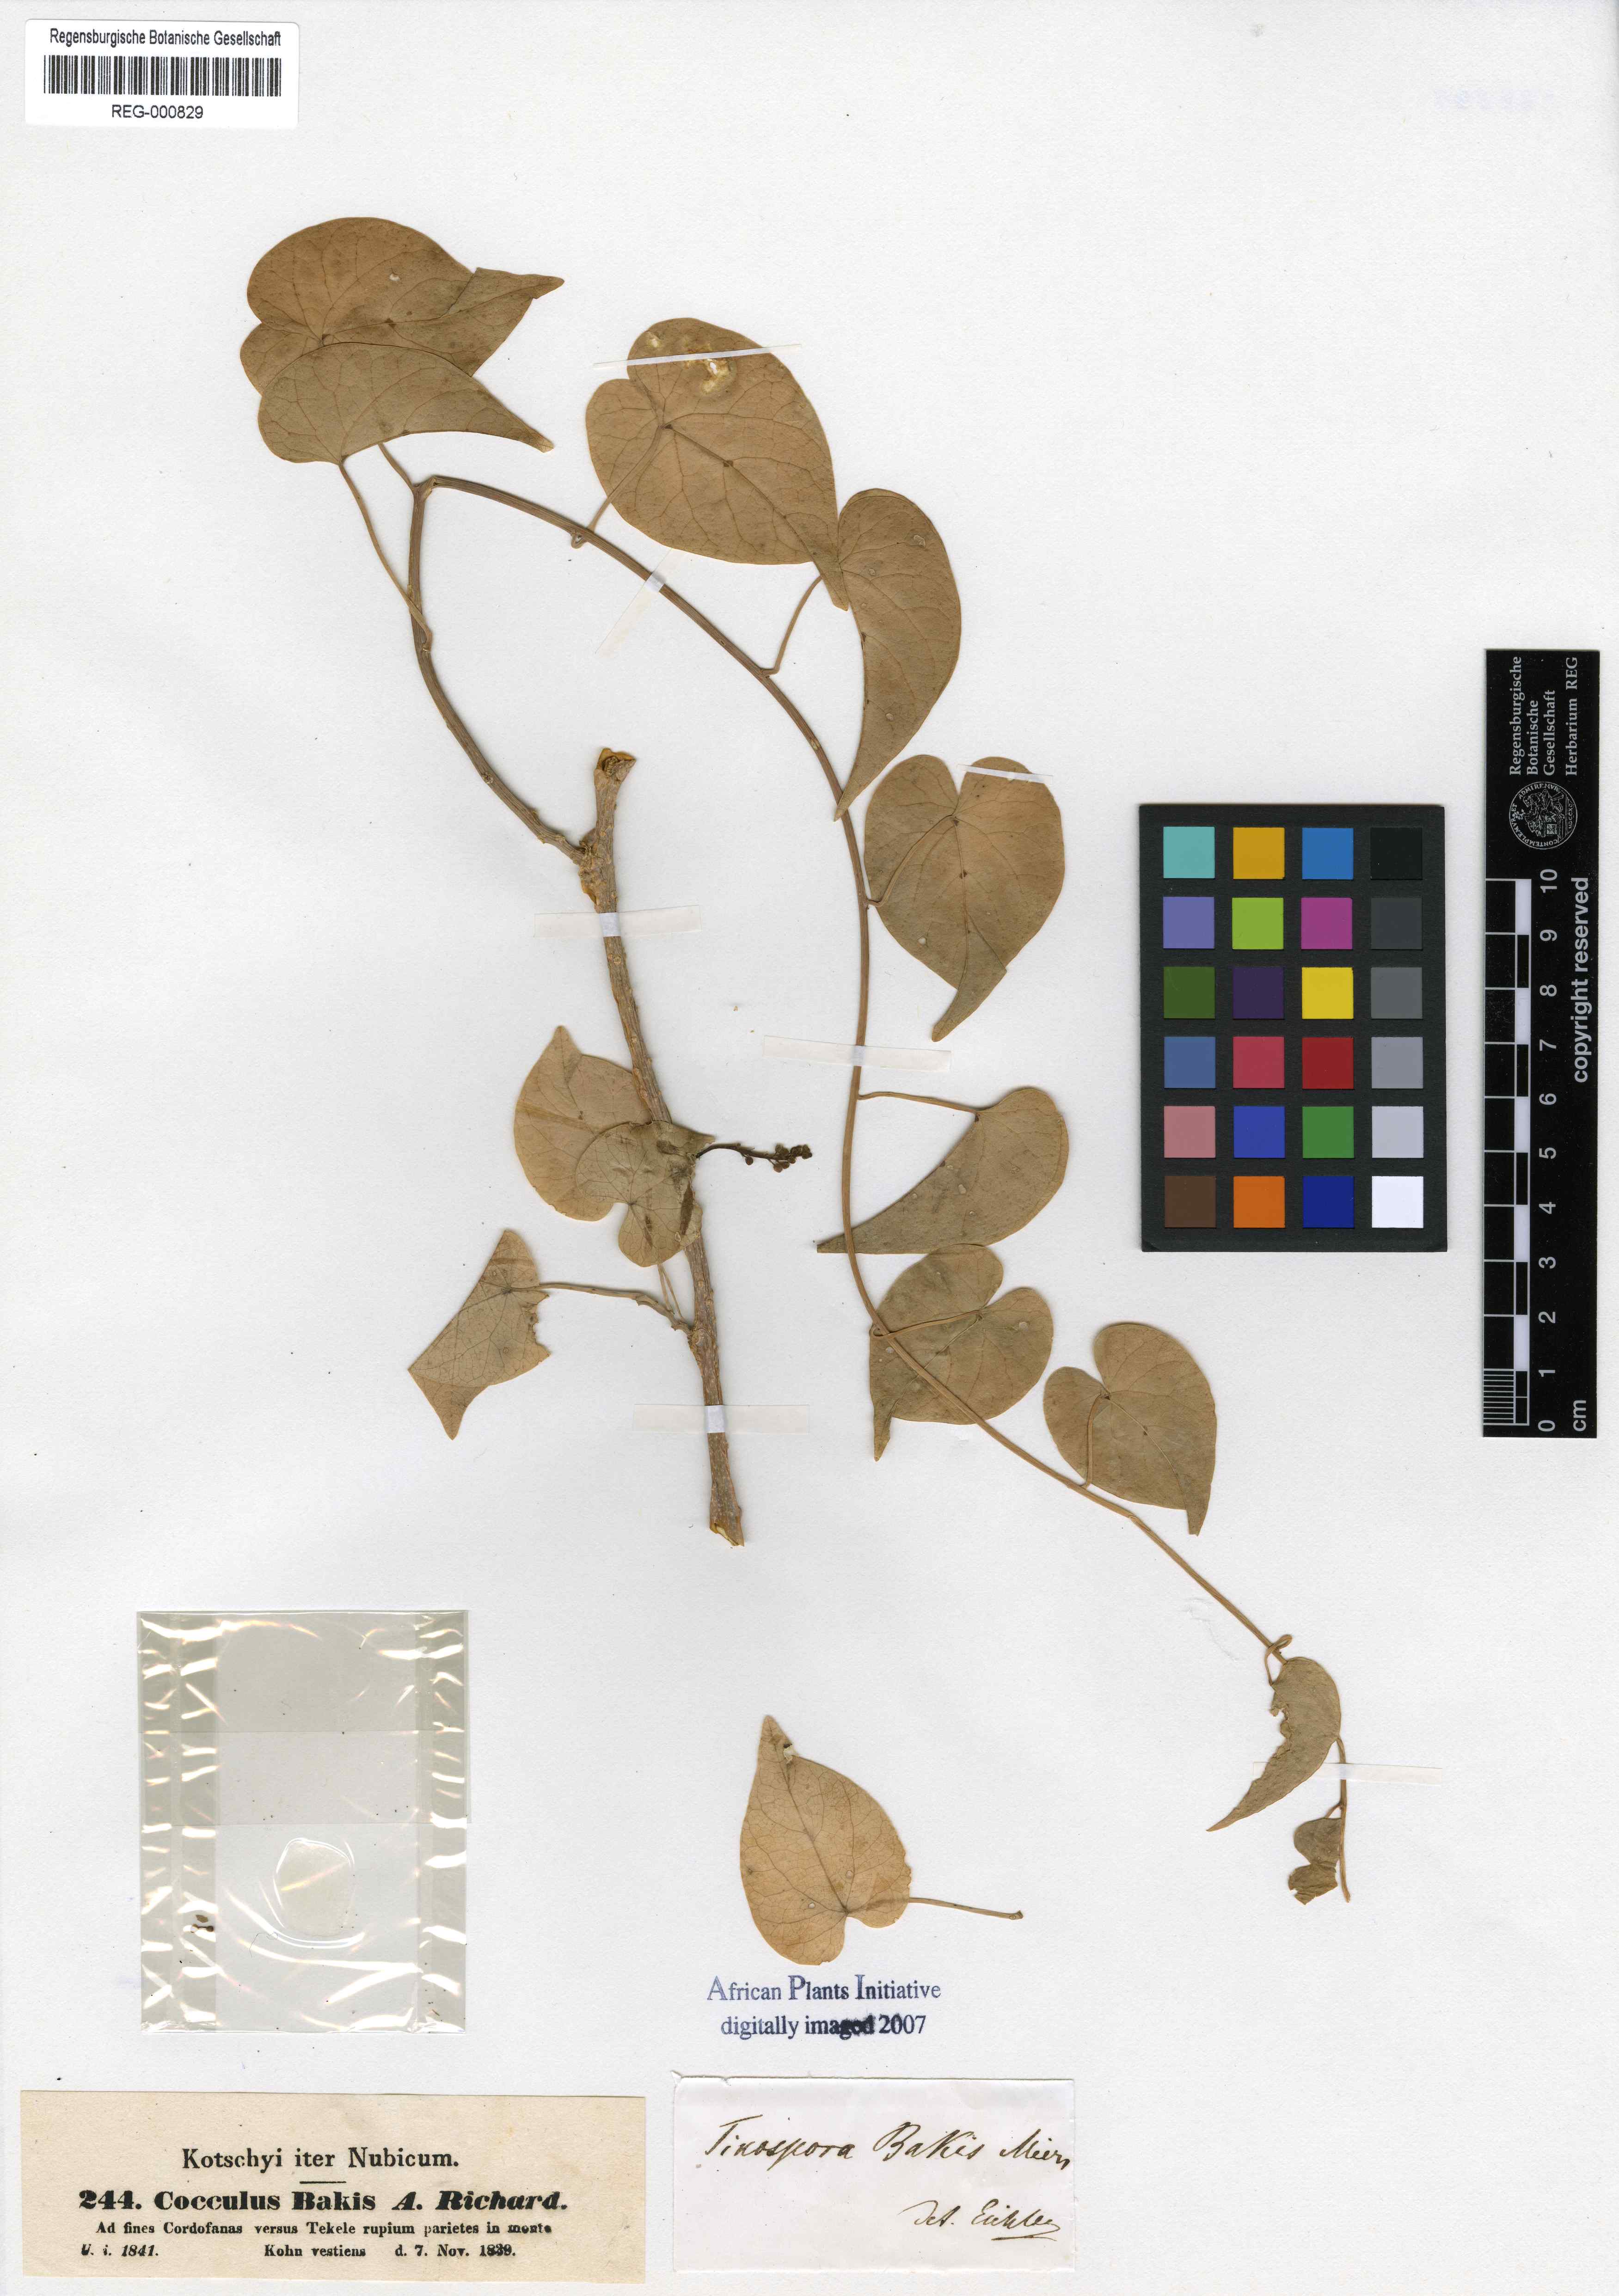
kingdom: Plantae
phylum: Tracheophyta
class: Magnoliopsida
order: Ranunculales
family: Menispermaceae
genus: Tinospora
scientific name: Tinospora bakis
